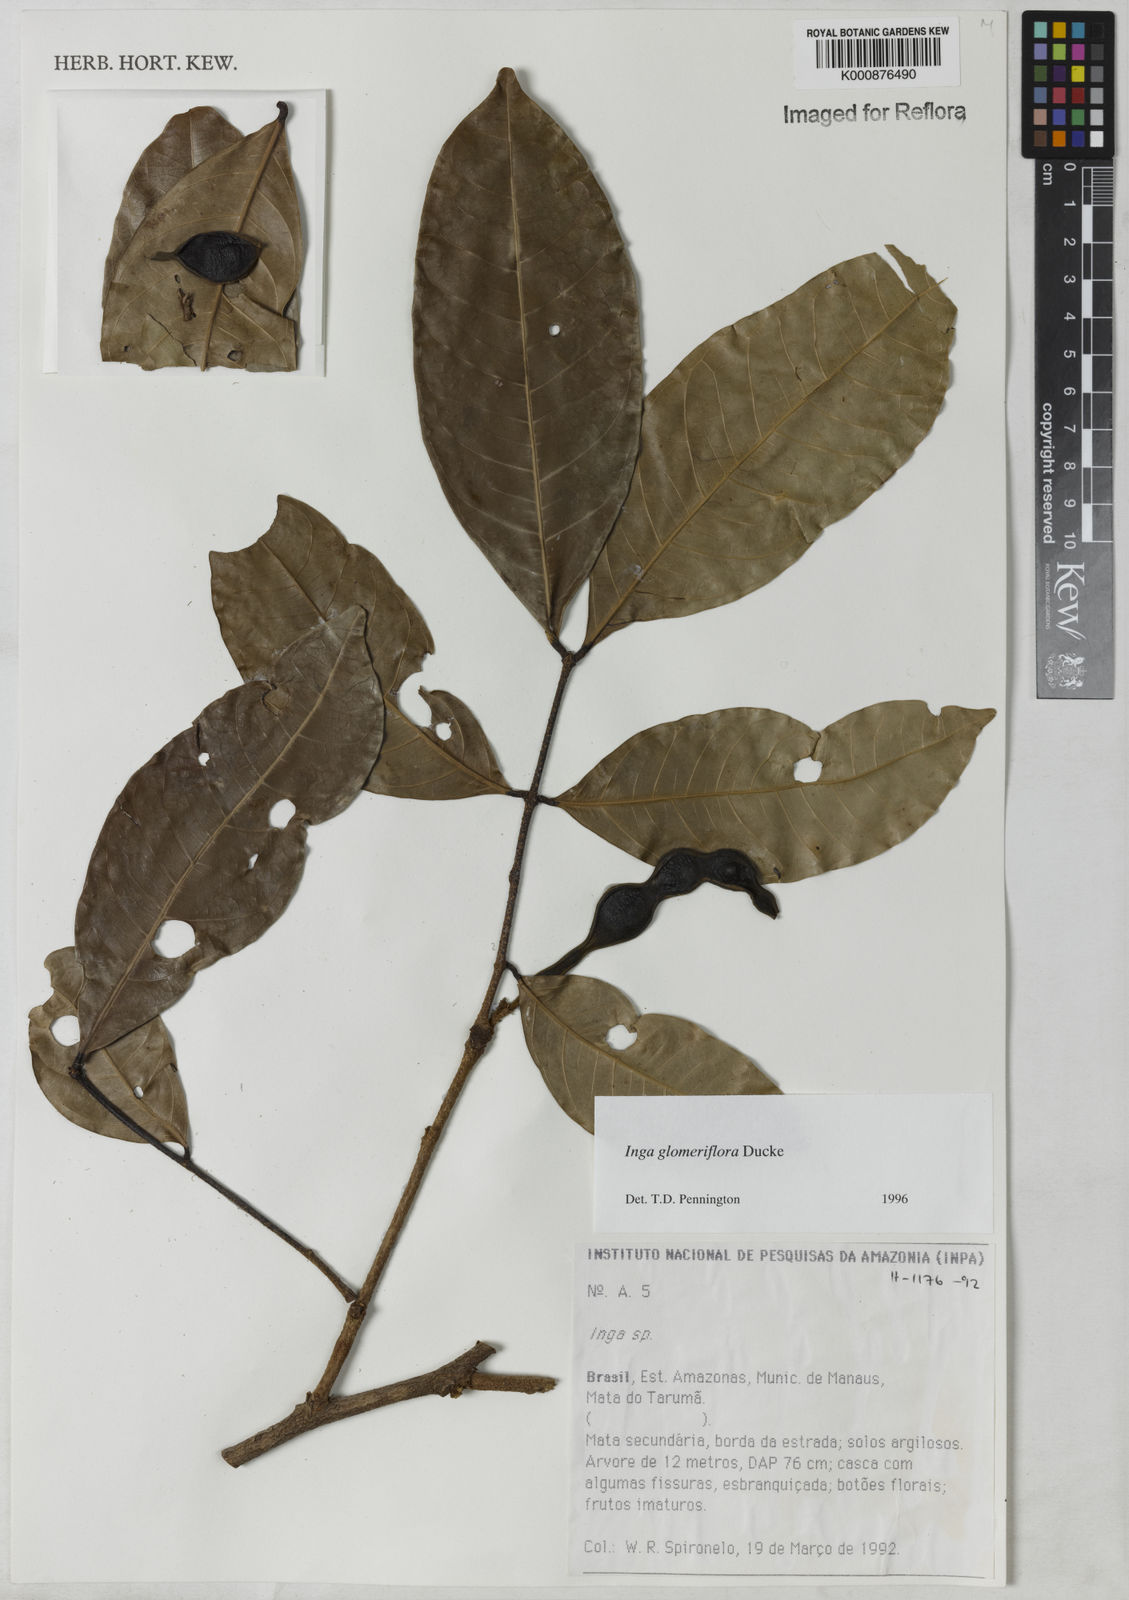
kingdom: Plantae
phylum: Tracheophyta
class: Magnoliopsida
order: Fabales
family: Fabaceae
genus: Inga
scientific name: Inga glomeriflora
